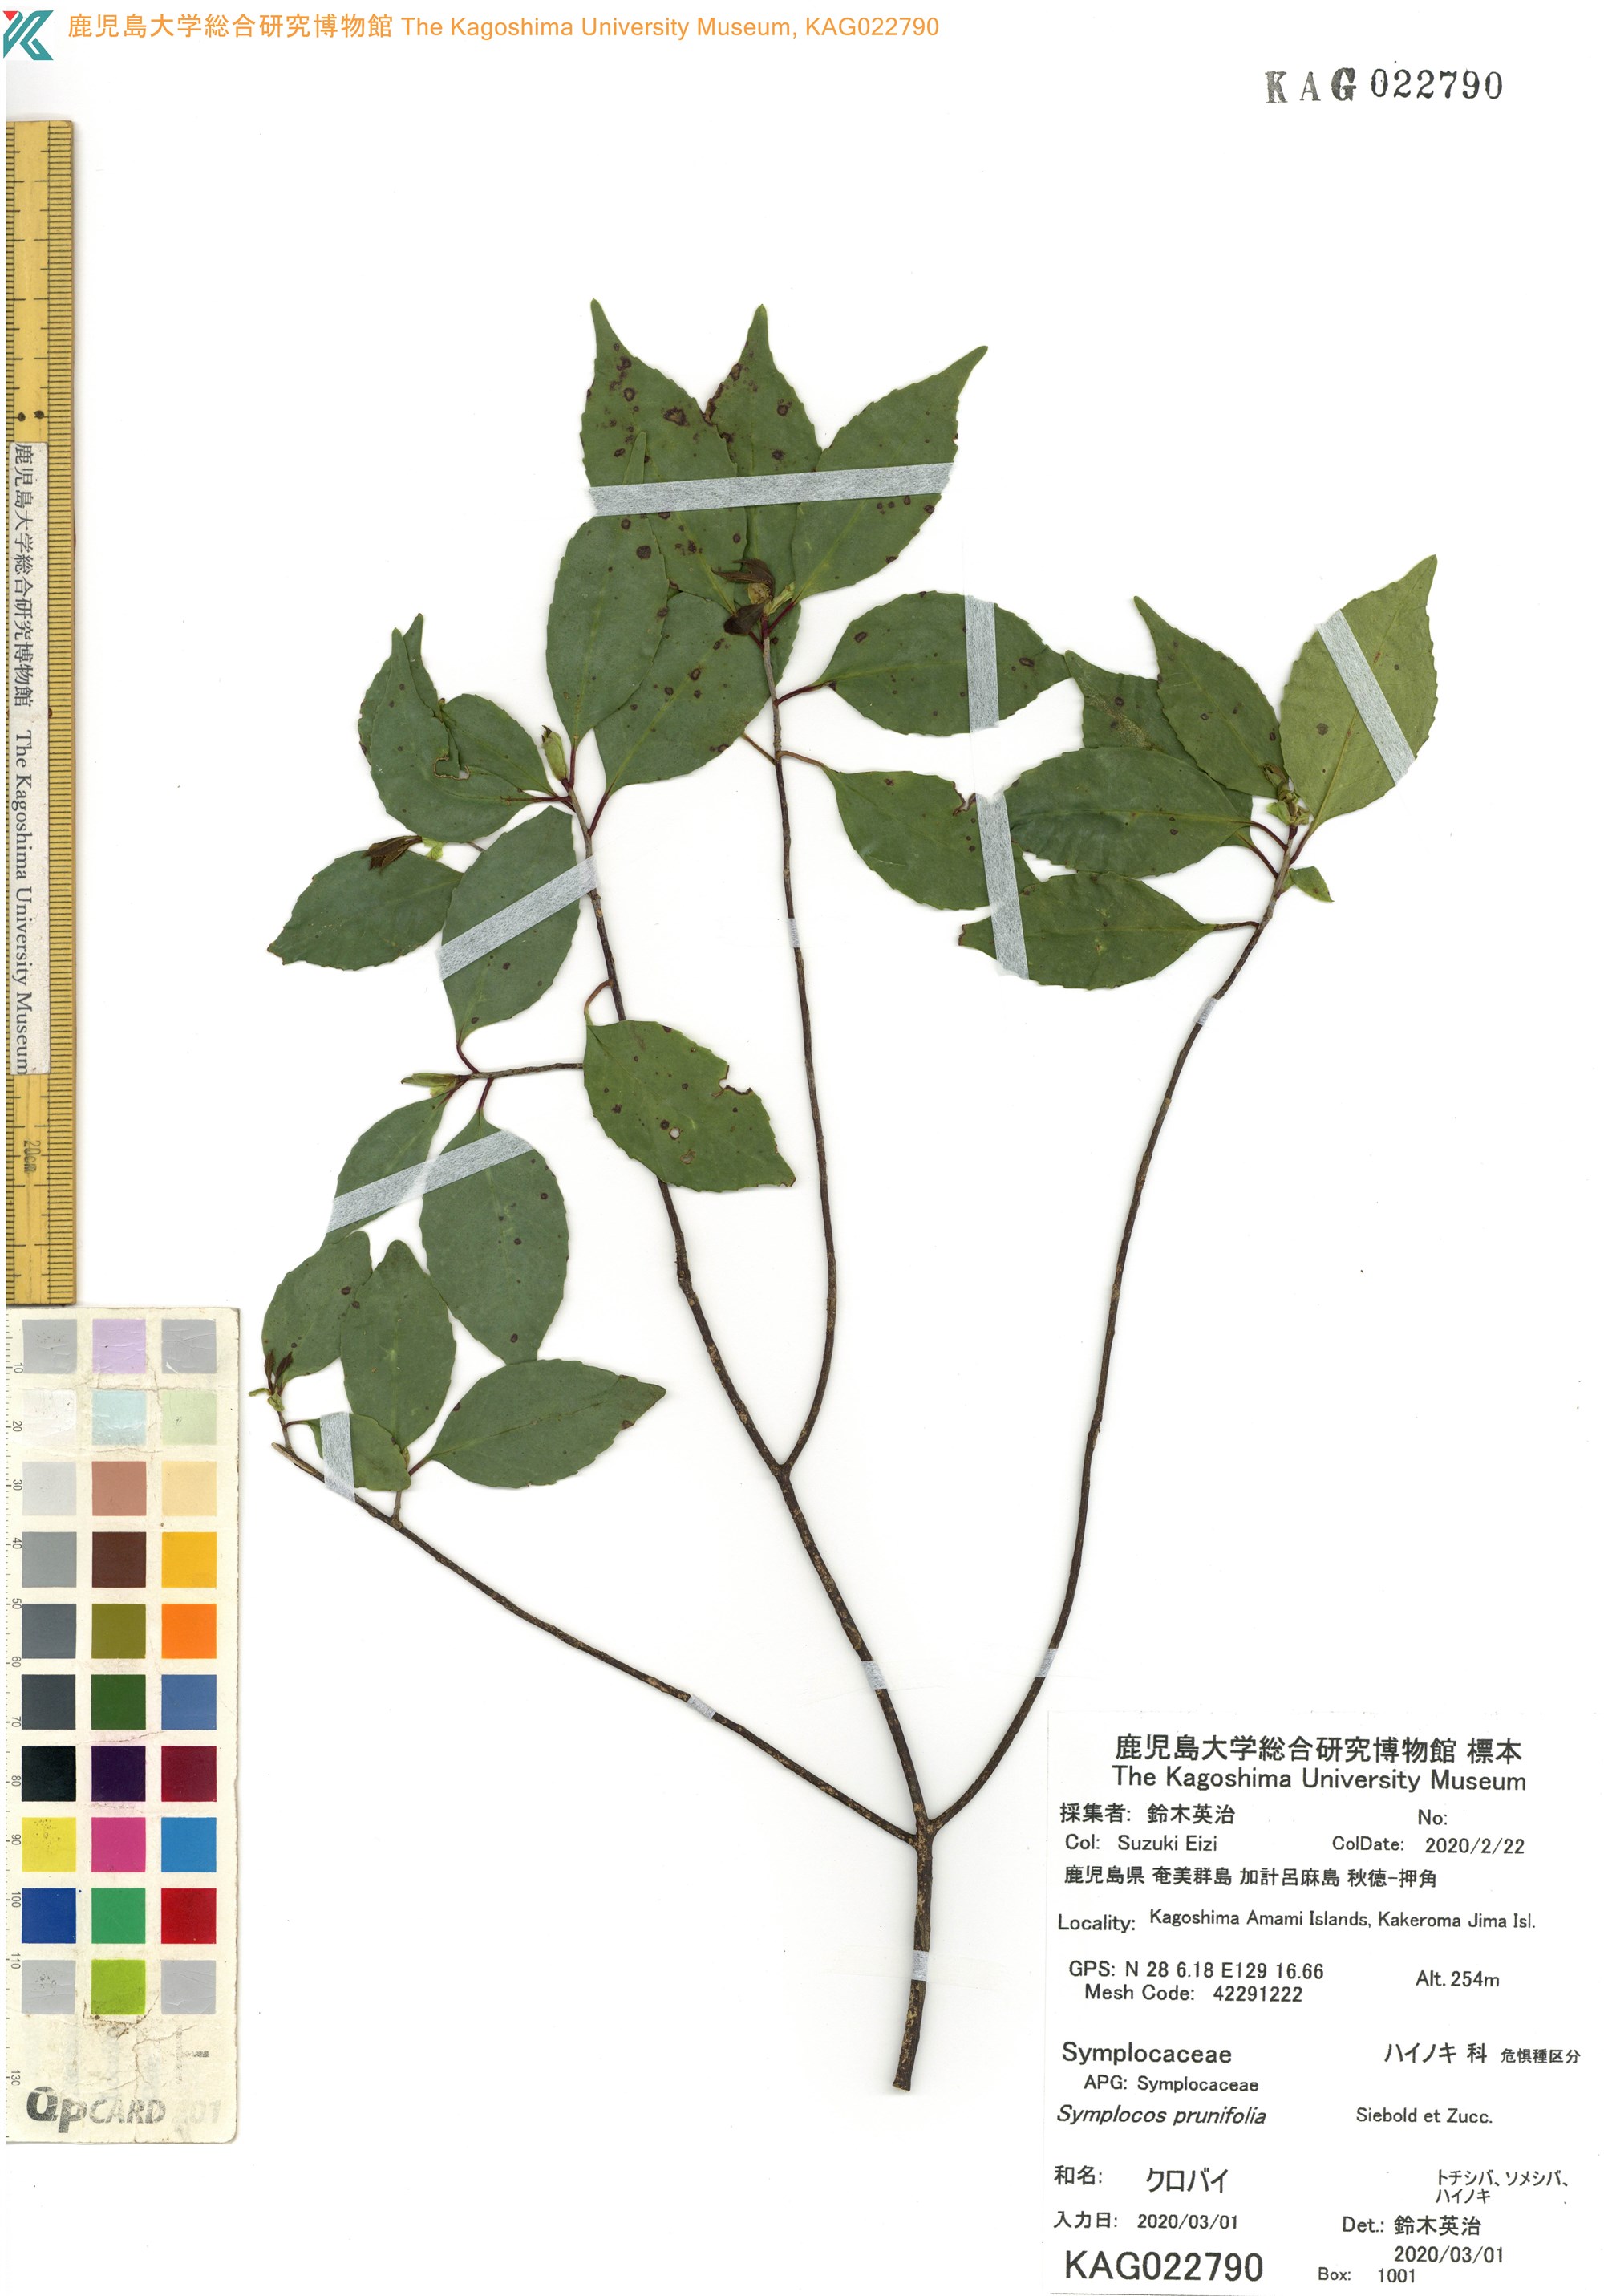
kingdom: Plantae
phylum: Tracheophyta
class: Magnoliopsida
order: Ericales
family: Symplocaceae
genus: Symplocos
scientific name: Symplocos sumuntia
